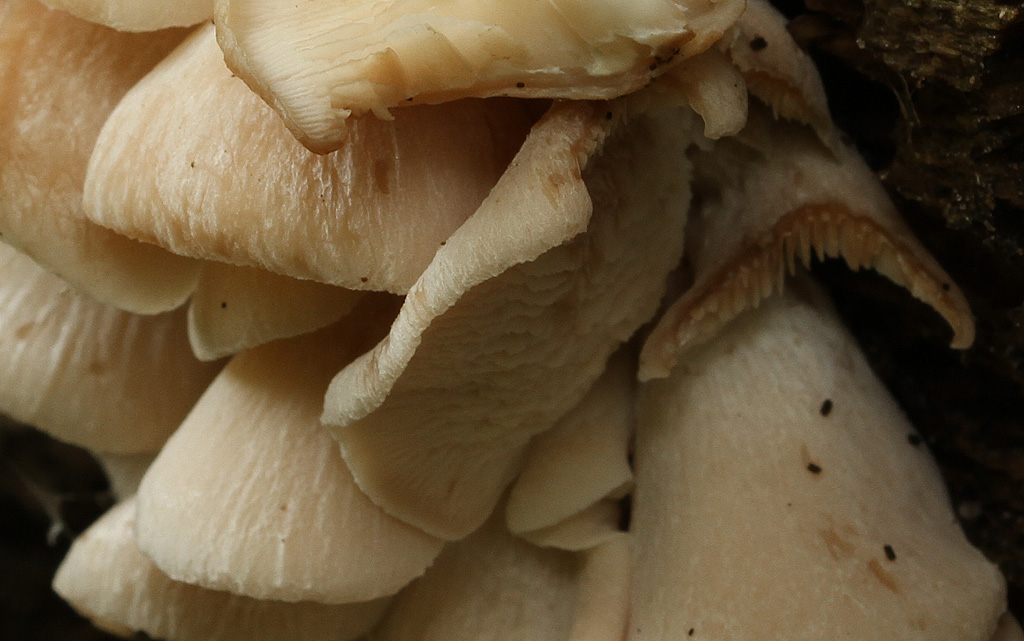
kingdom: Fungi
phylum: Basidiomycota
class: Agaricomycetes
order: Russulales
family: Auriscalpiaceae
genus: Lentinellus
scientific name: Lentinellus ursinus
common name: børstehåret savbladhat
